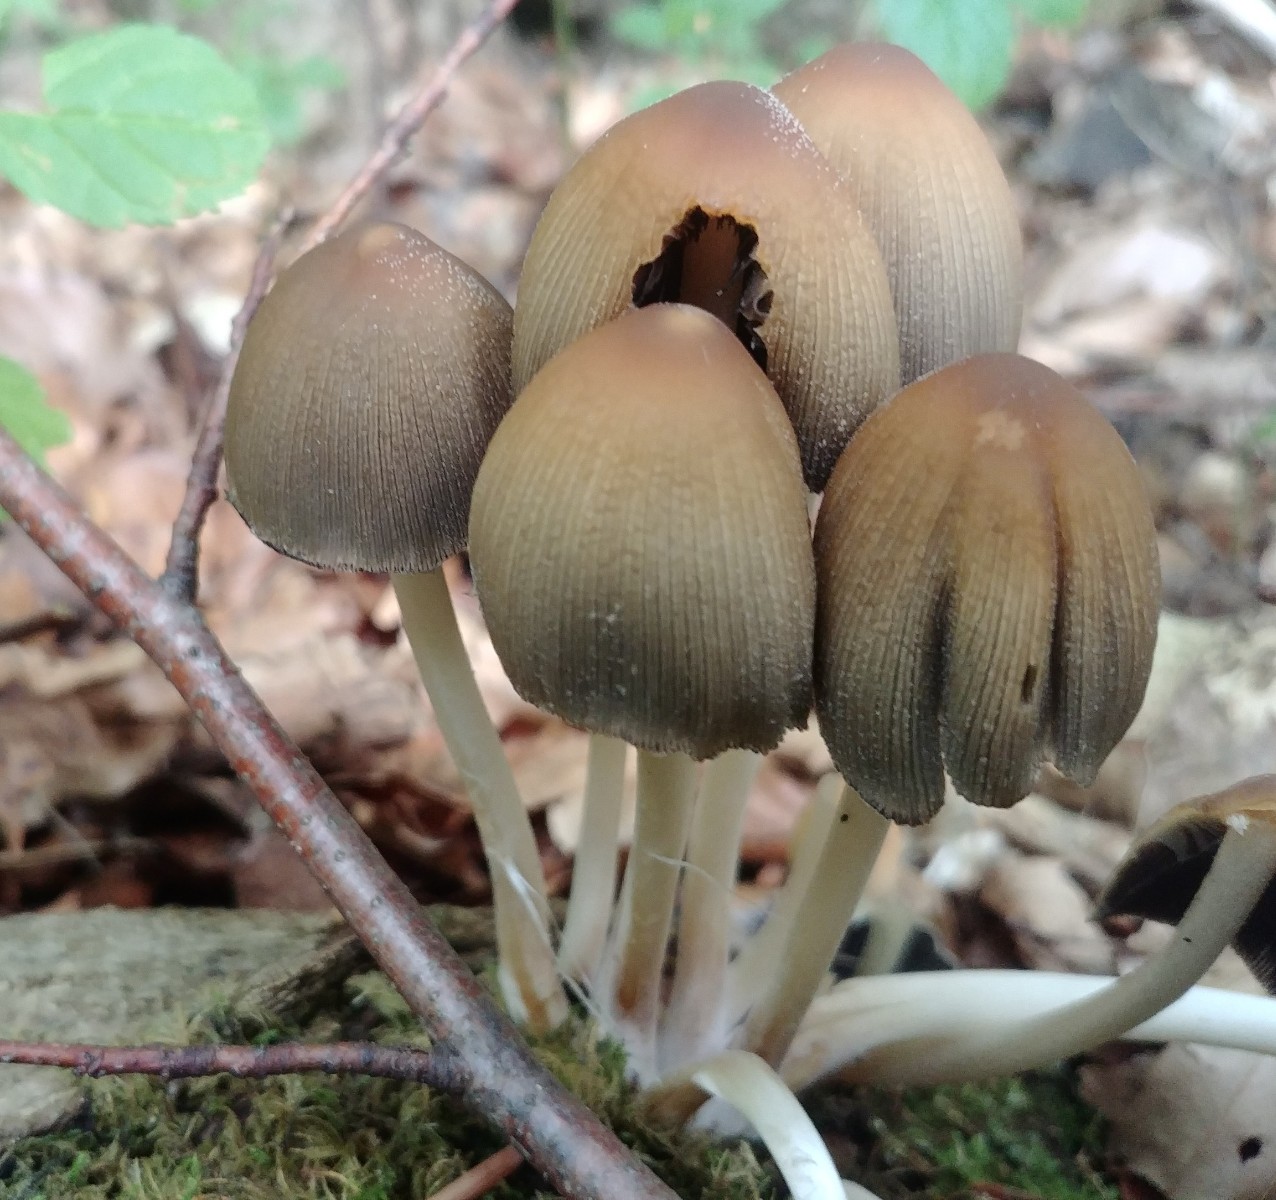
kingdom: Fungi
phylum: Basidiomycota
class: Agaricomycetes
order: Agaricales
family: Psathyrellaceae
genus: Coprinellus
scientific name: Coprinellus micaceus
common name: glimmer-blækhat
